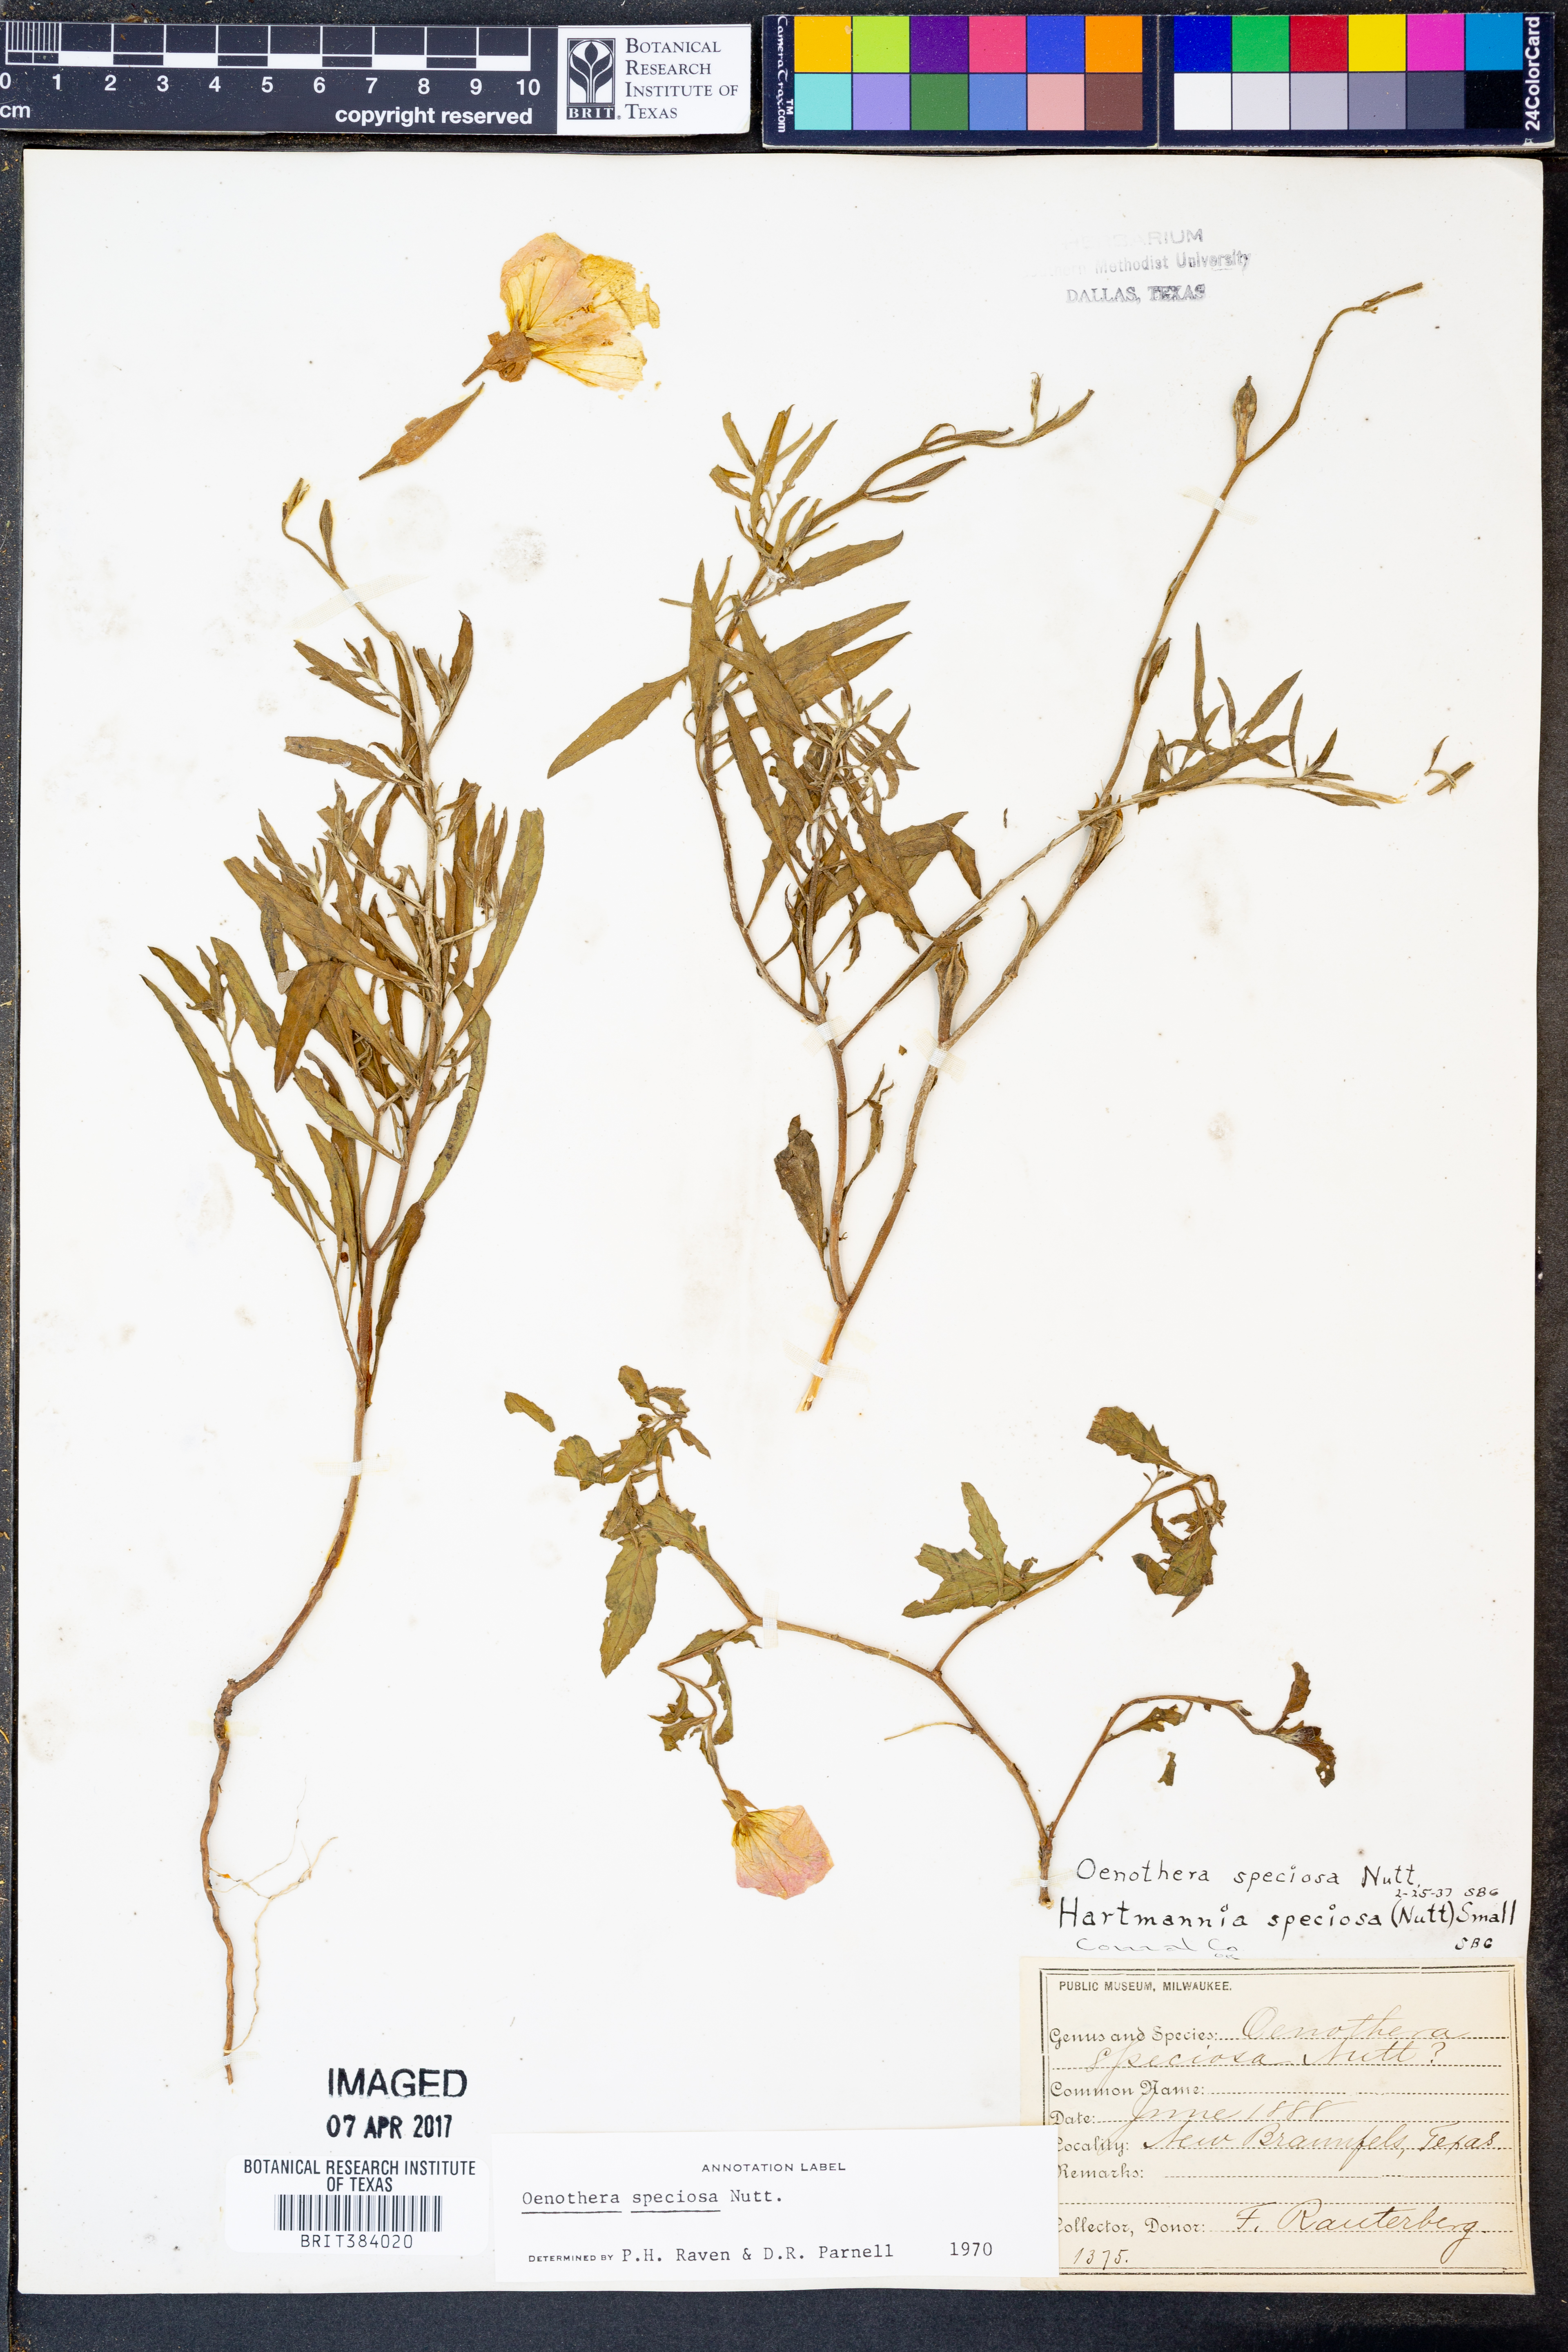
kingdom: Plantae
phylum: Tracheophyta
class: Magnoliopsida
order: Myrtales
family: Onagraceae
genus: Oenothera
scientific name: Oenothera speciosa
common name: White evening-primrose
